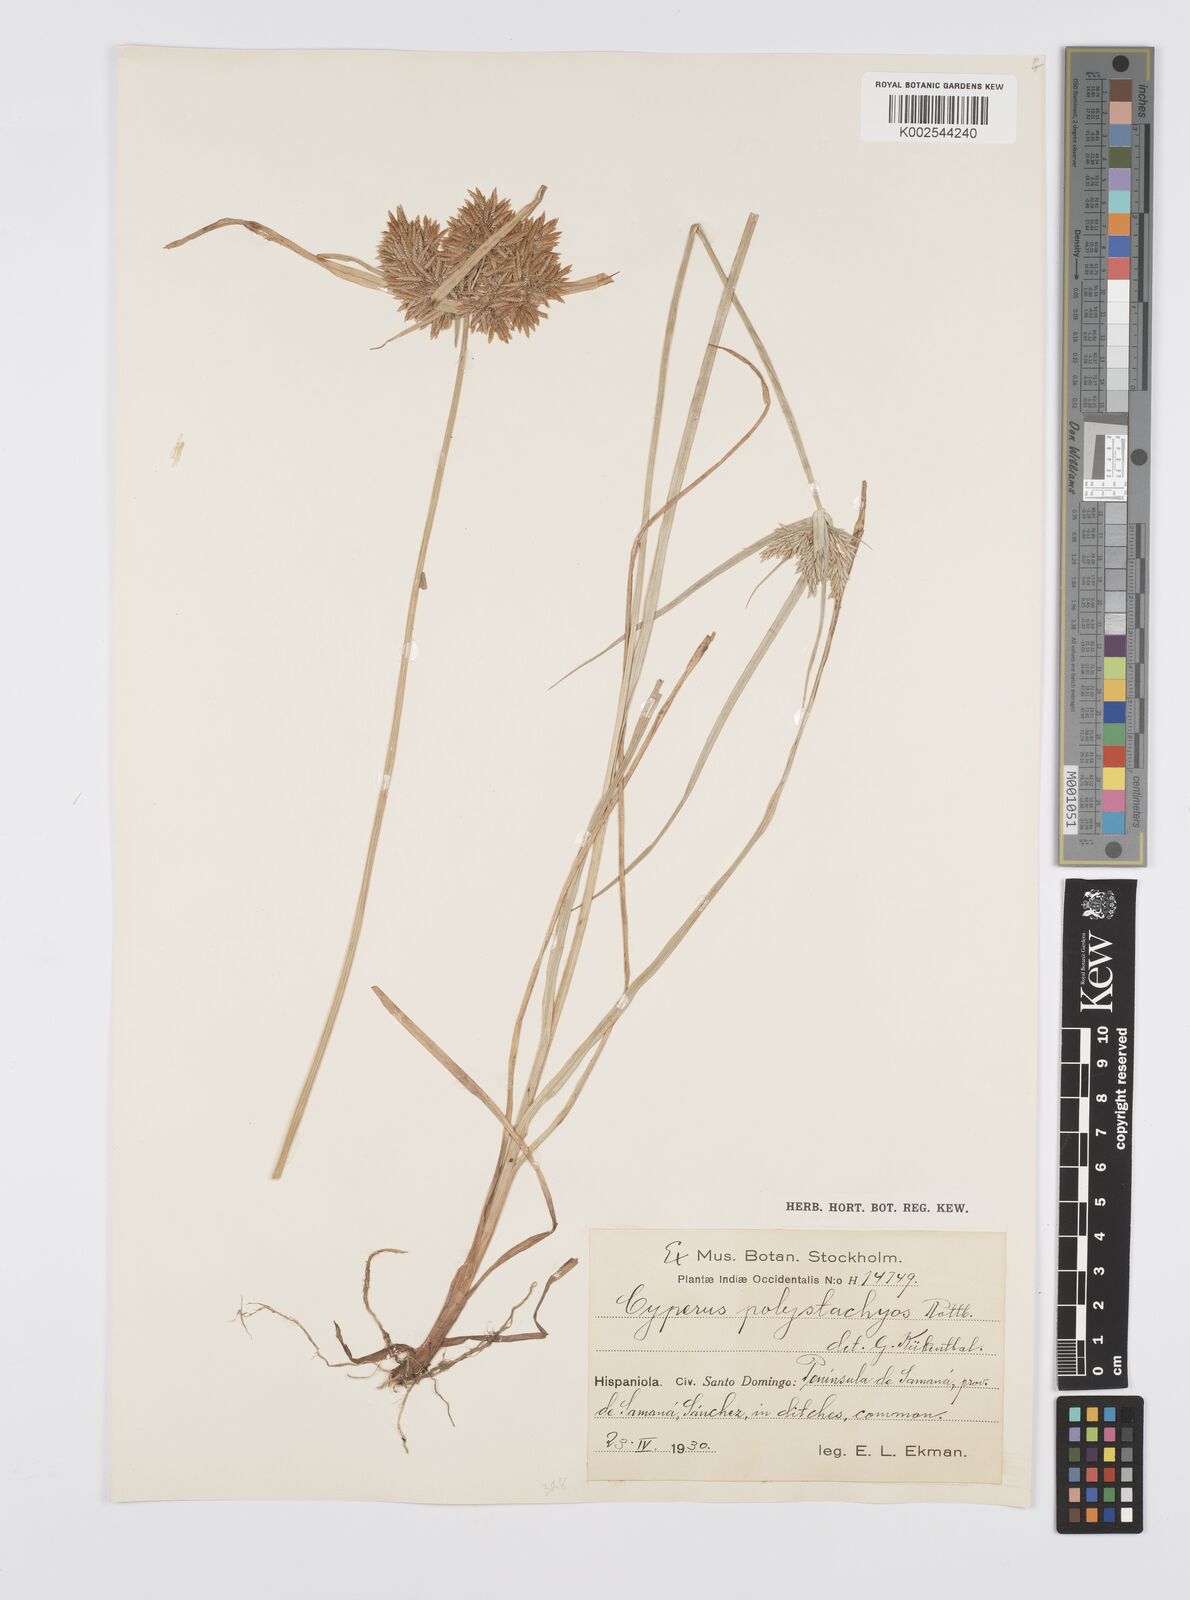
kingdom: Plantae
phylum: Tracheophyta
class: Liliopsida
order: Poales
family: Cyperaceae
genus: Cyperus
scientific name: Cyperus polystachyos
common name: Bunchy flat sedge
